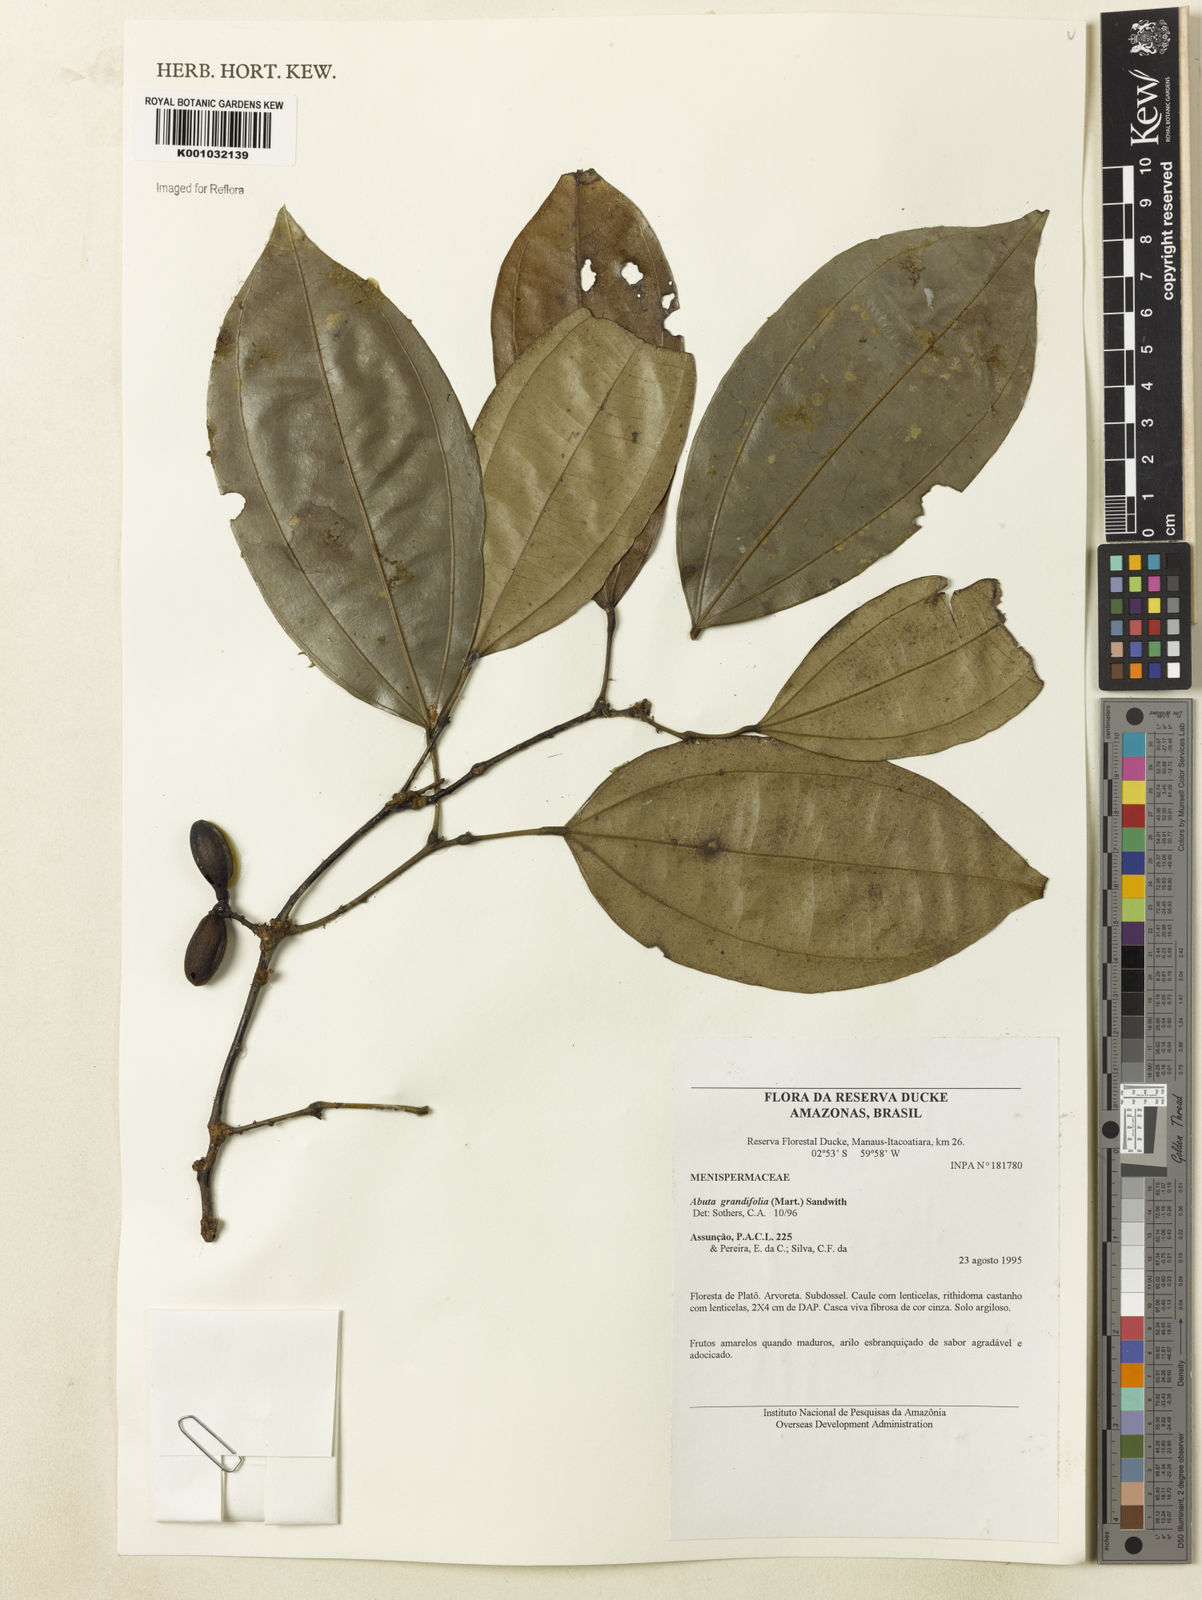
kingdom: Plantae
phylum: Tracheophyta
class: Magnoliopsida
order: Ranunculales
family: Menispermaceae
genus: Abuta
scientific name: Abuta grandifolia
